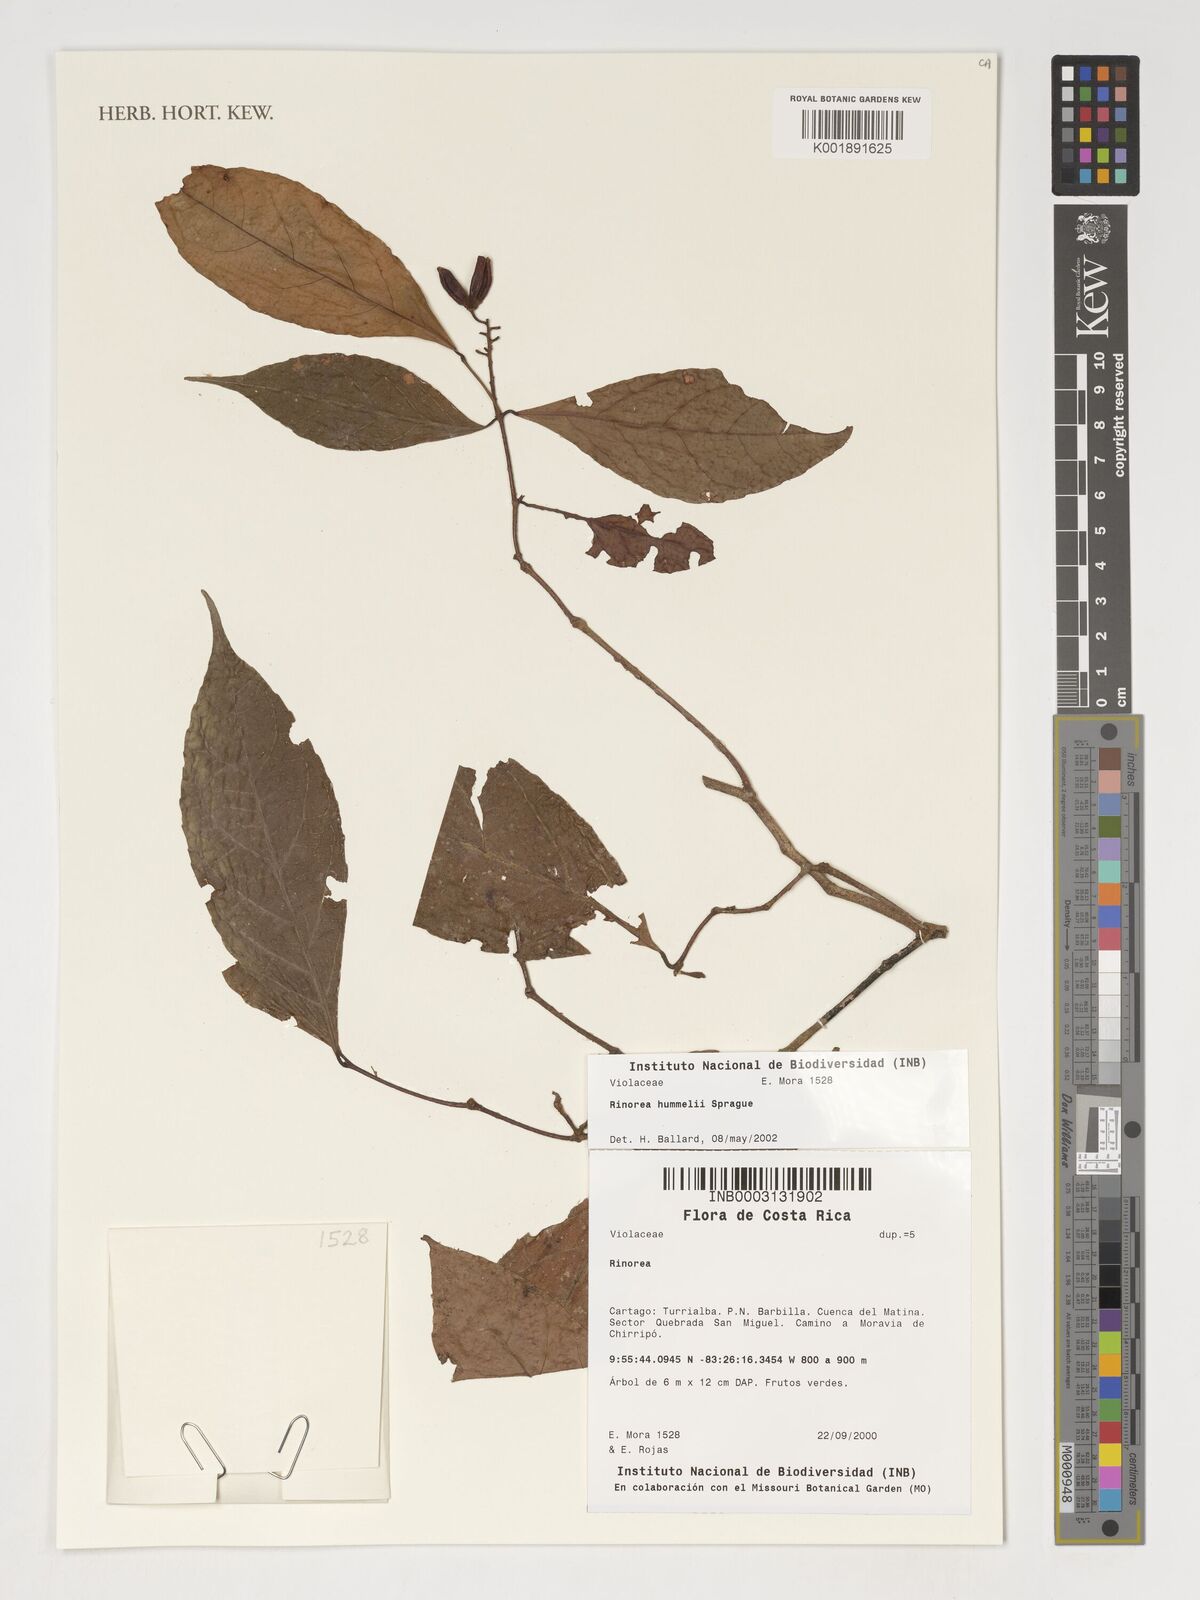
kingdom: Plantae
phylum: Tracheophyta
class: Magnoliopsida
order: Malpighiales
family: Violaceae
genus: Rinorea
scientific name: Rinorea hummelii
